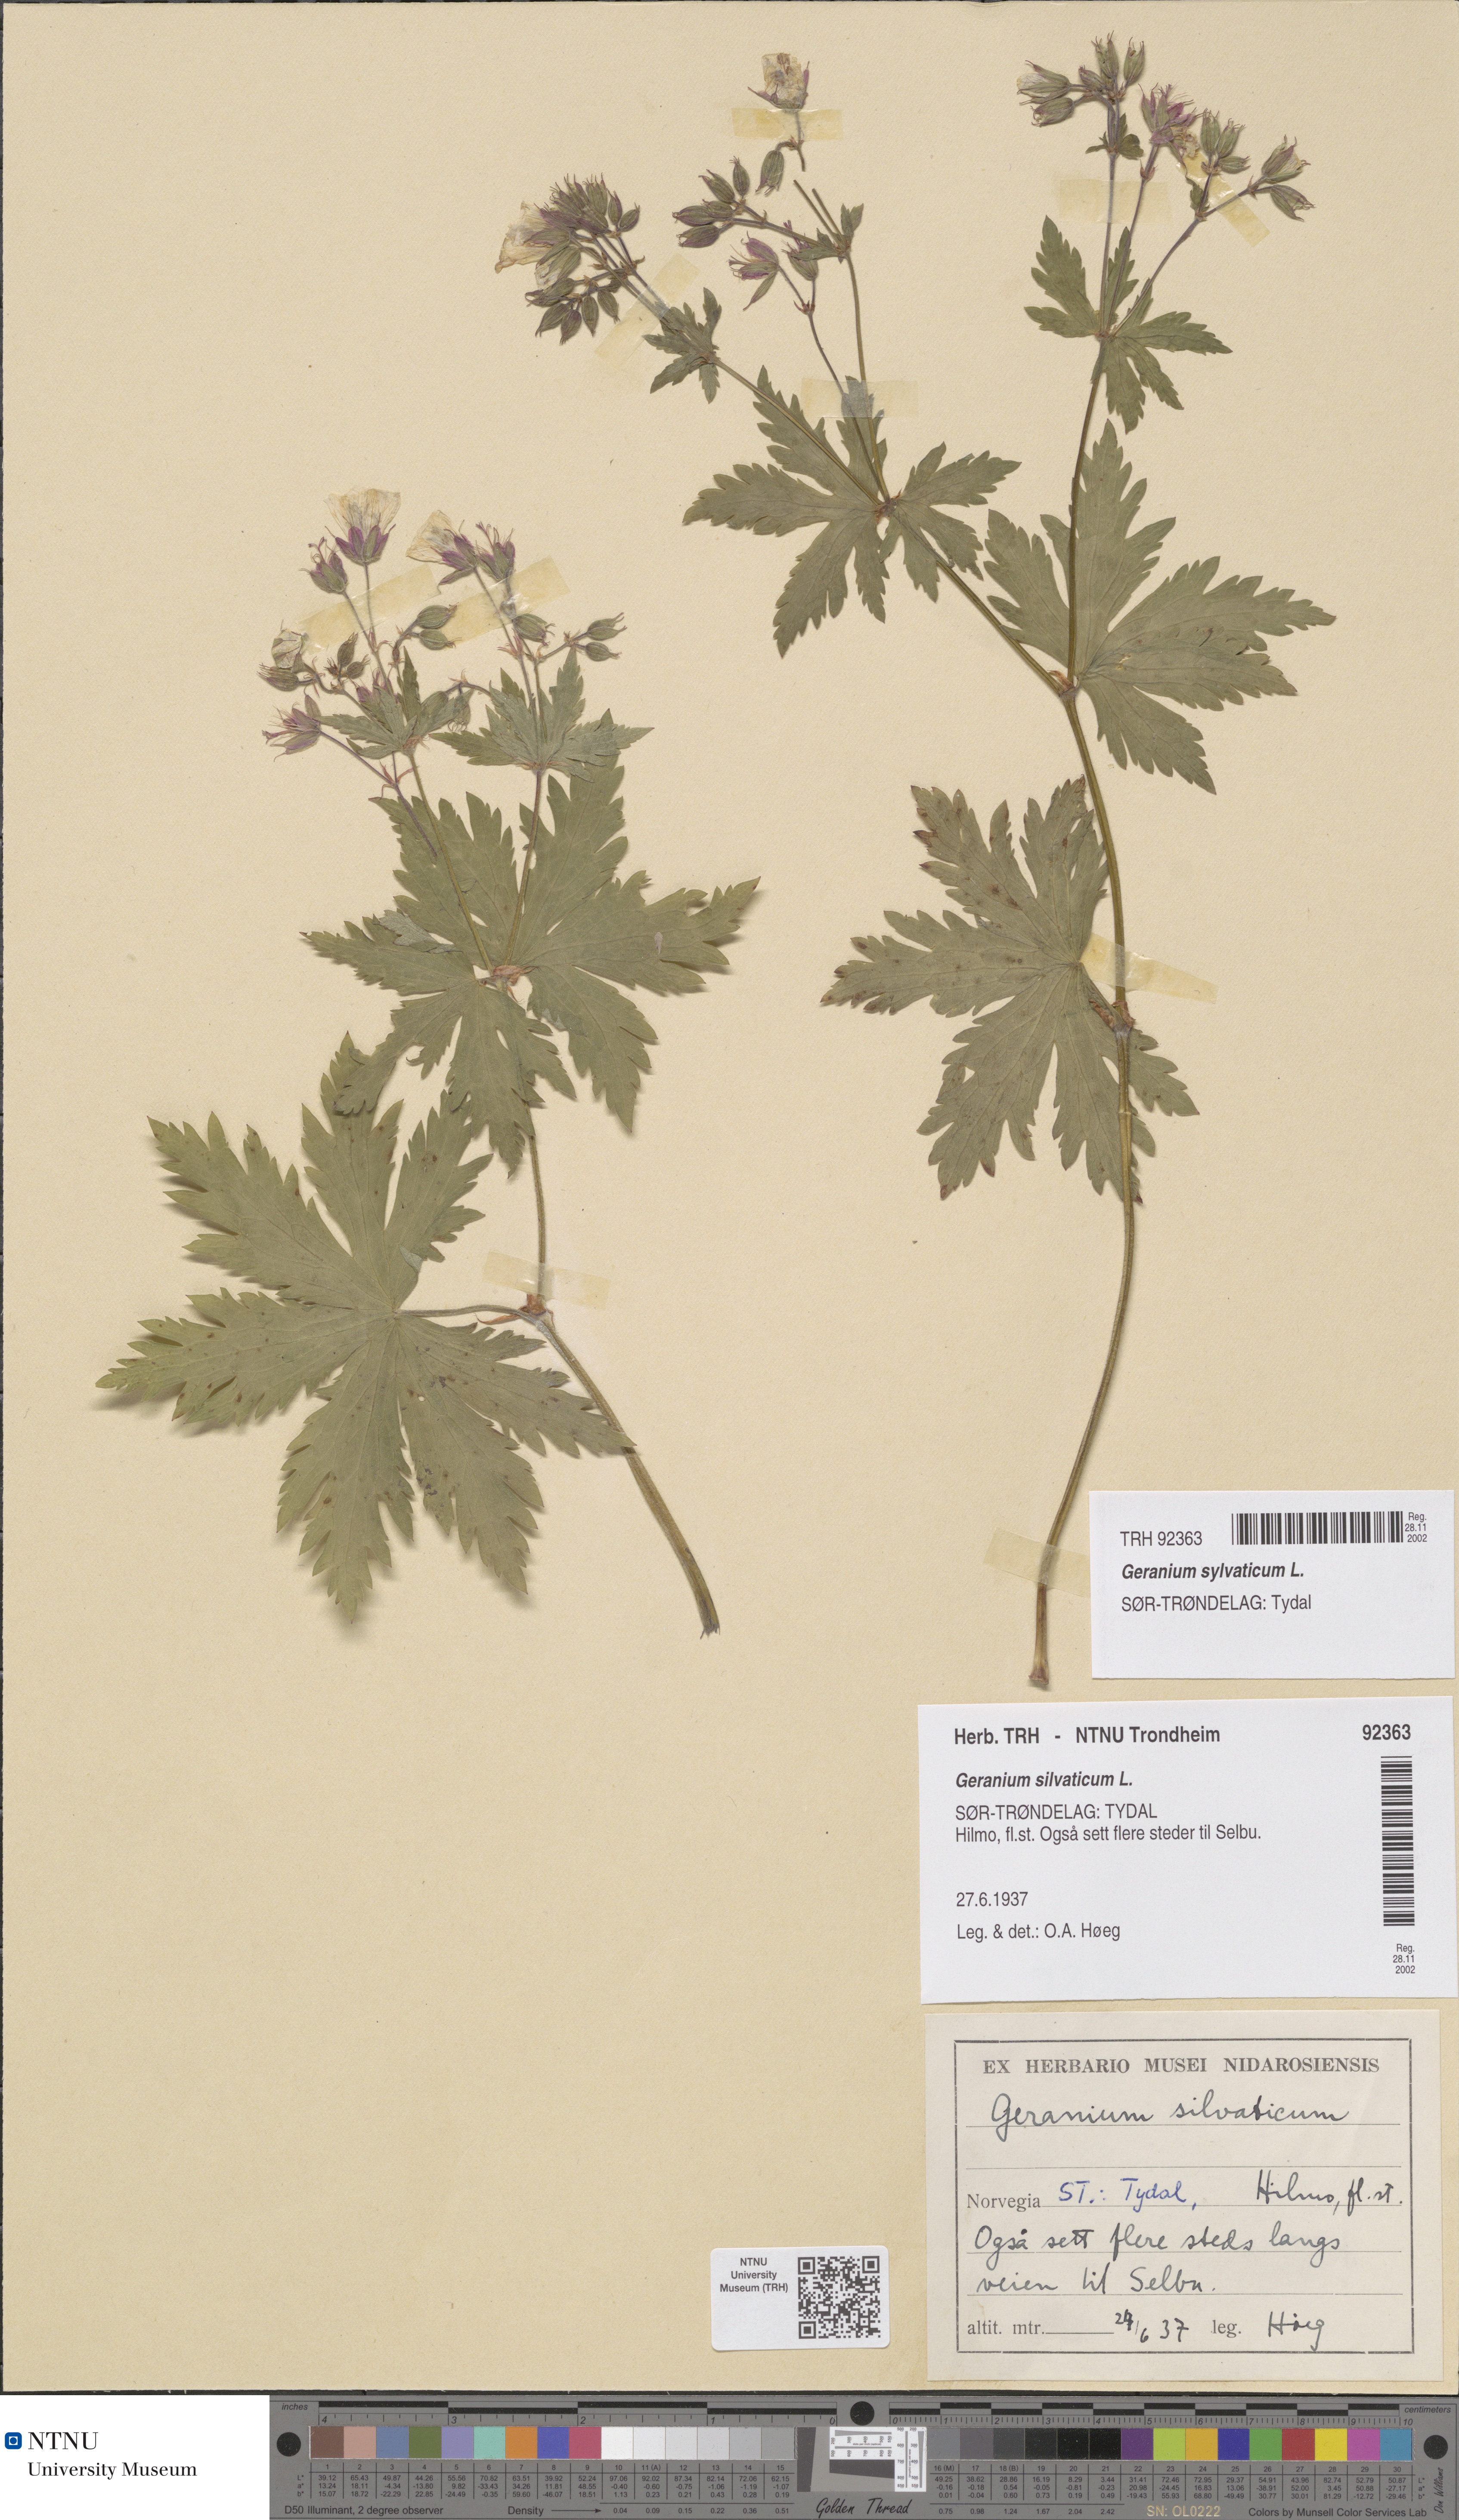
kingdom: Plantae
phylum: Tracheophyta
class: Magnoliopsida
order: Geraniales
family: Geraniaceae
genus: Geranium
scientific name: Geranium sylvaticum
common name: Wood crane's-bill
